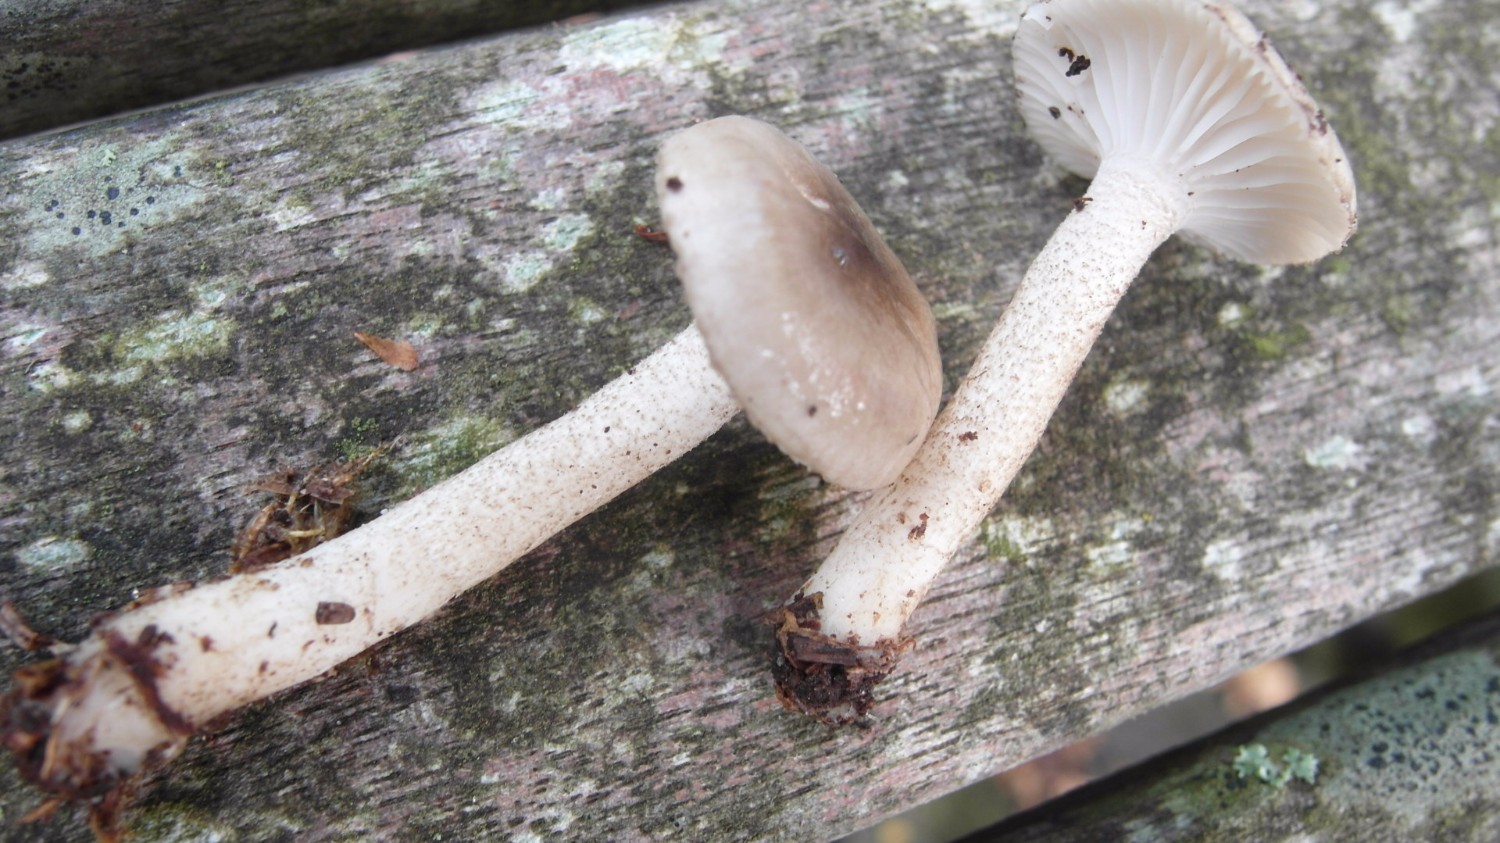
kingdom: Fungi
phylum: Basidiomycota
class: Agaricomycetes
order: Agaricales
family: Hygrophoraceae
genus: Hygrophorus
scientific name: Hygrophorus pustulatus
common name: mørkprikket sneglehat
